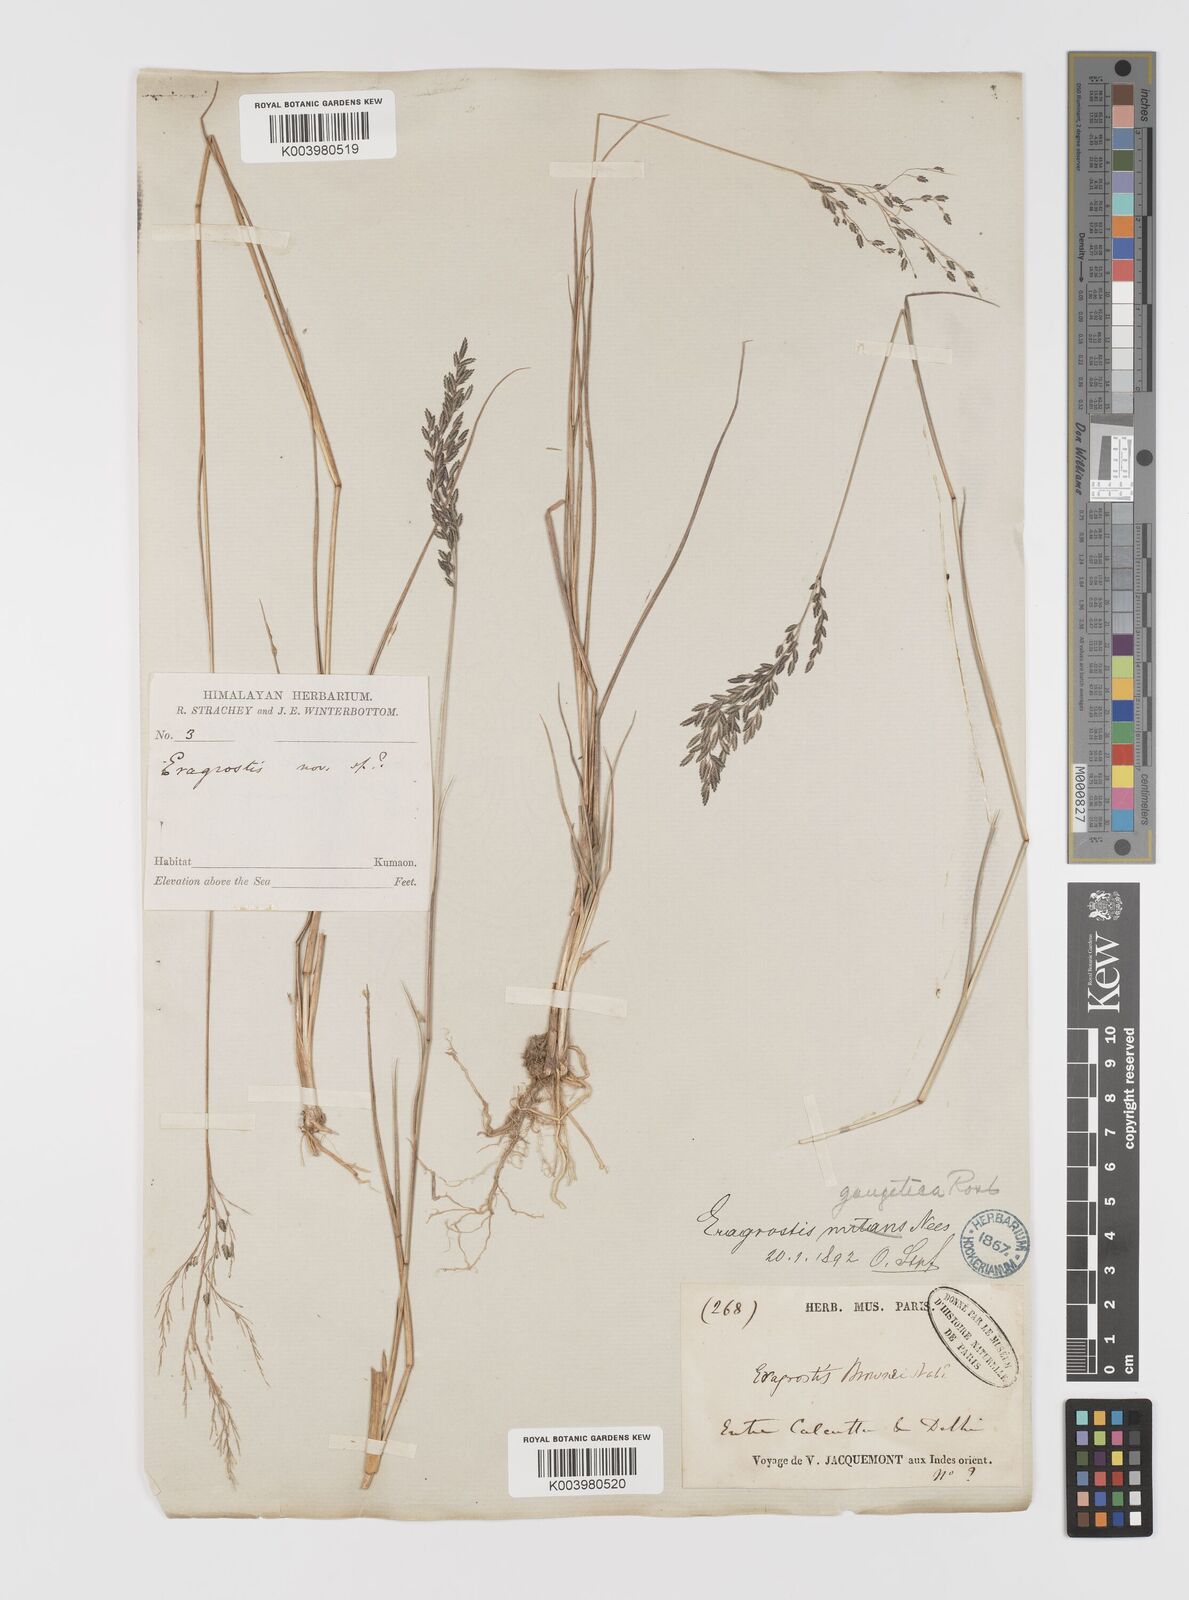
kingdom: Plantae
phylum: Tracheophyta
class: Liliopsida
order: Poales
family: Poaceae
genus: Eragrostis
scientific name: Eragrostis atrovirens
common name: Thalia lovegrass
